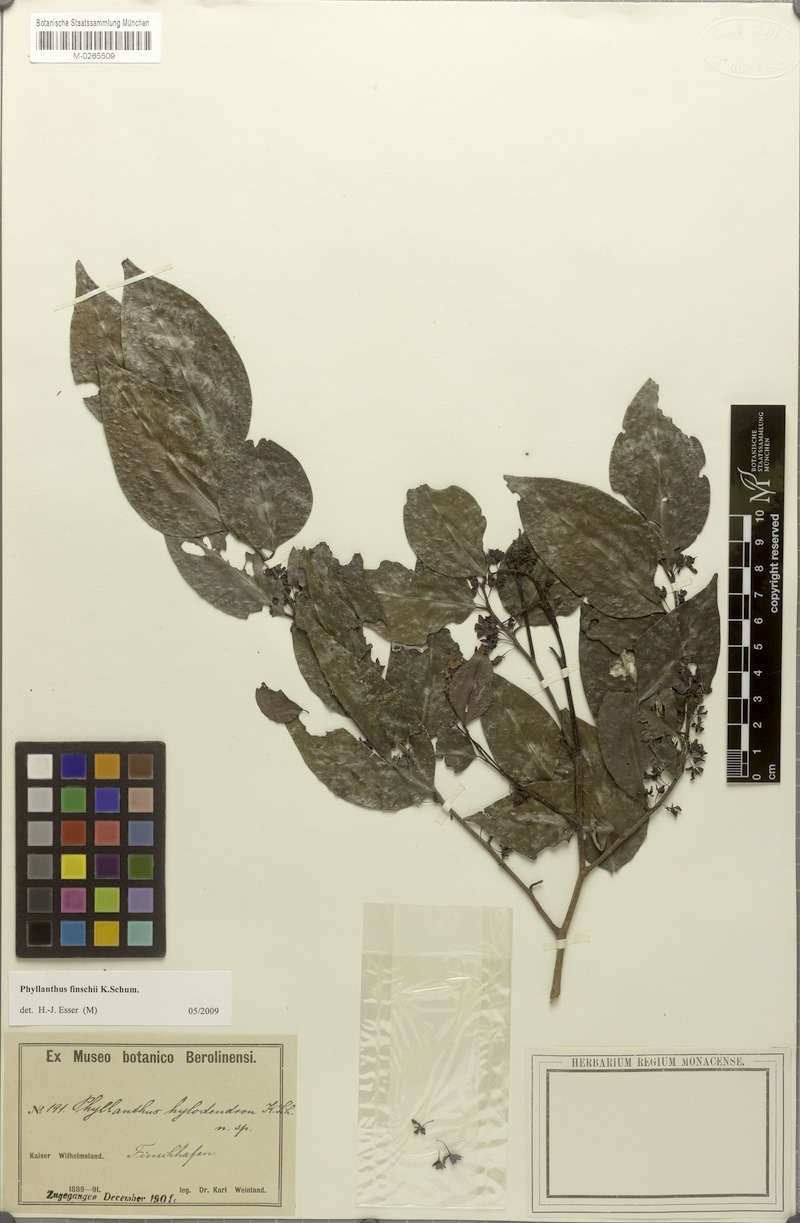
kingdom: Plantae
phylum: Tracheophyta
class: Magnoliopsida
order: Malpighiales
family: Phyllanthaceae
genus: Phyllanthus
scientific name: Phyllanthus finschii
